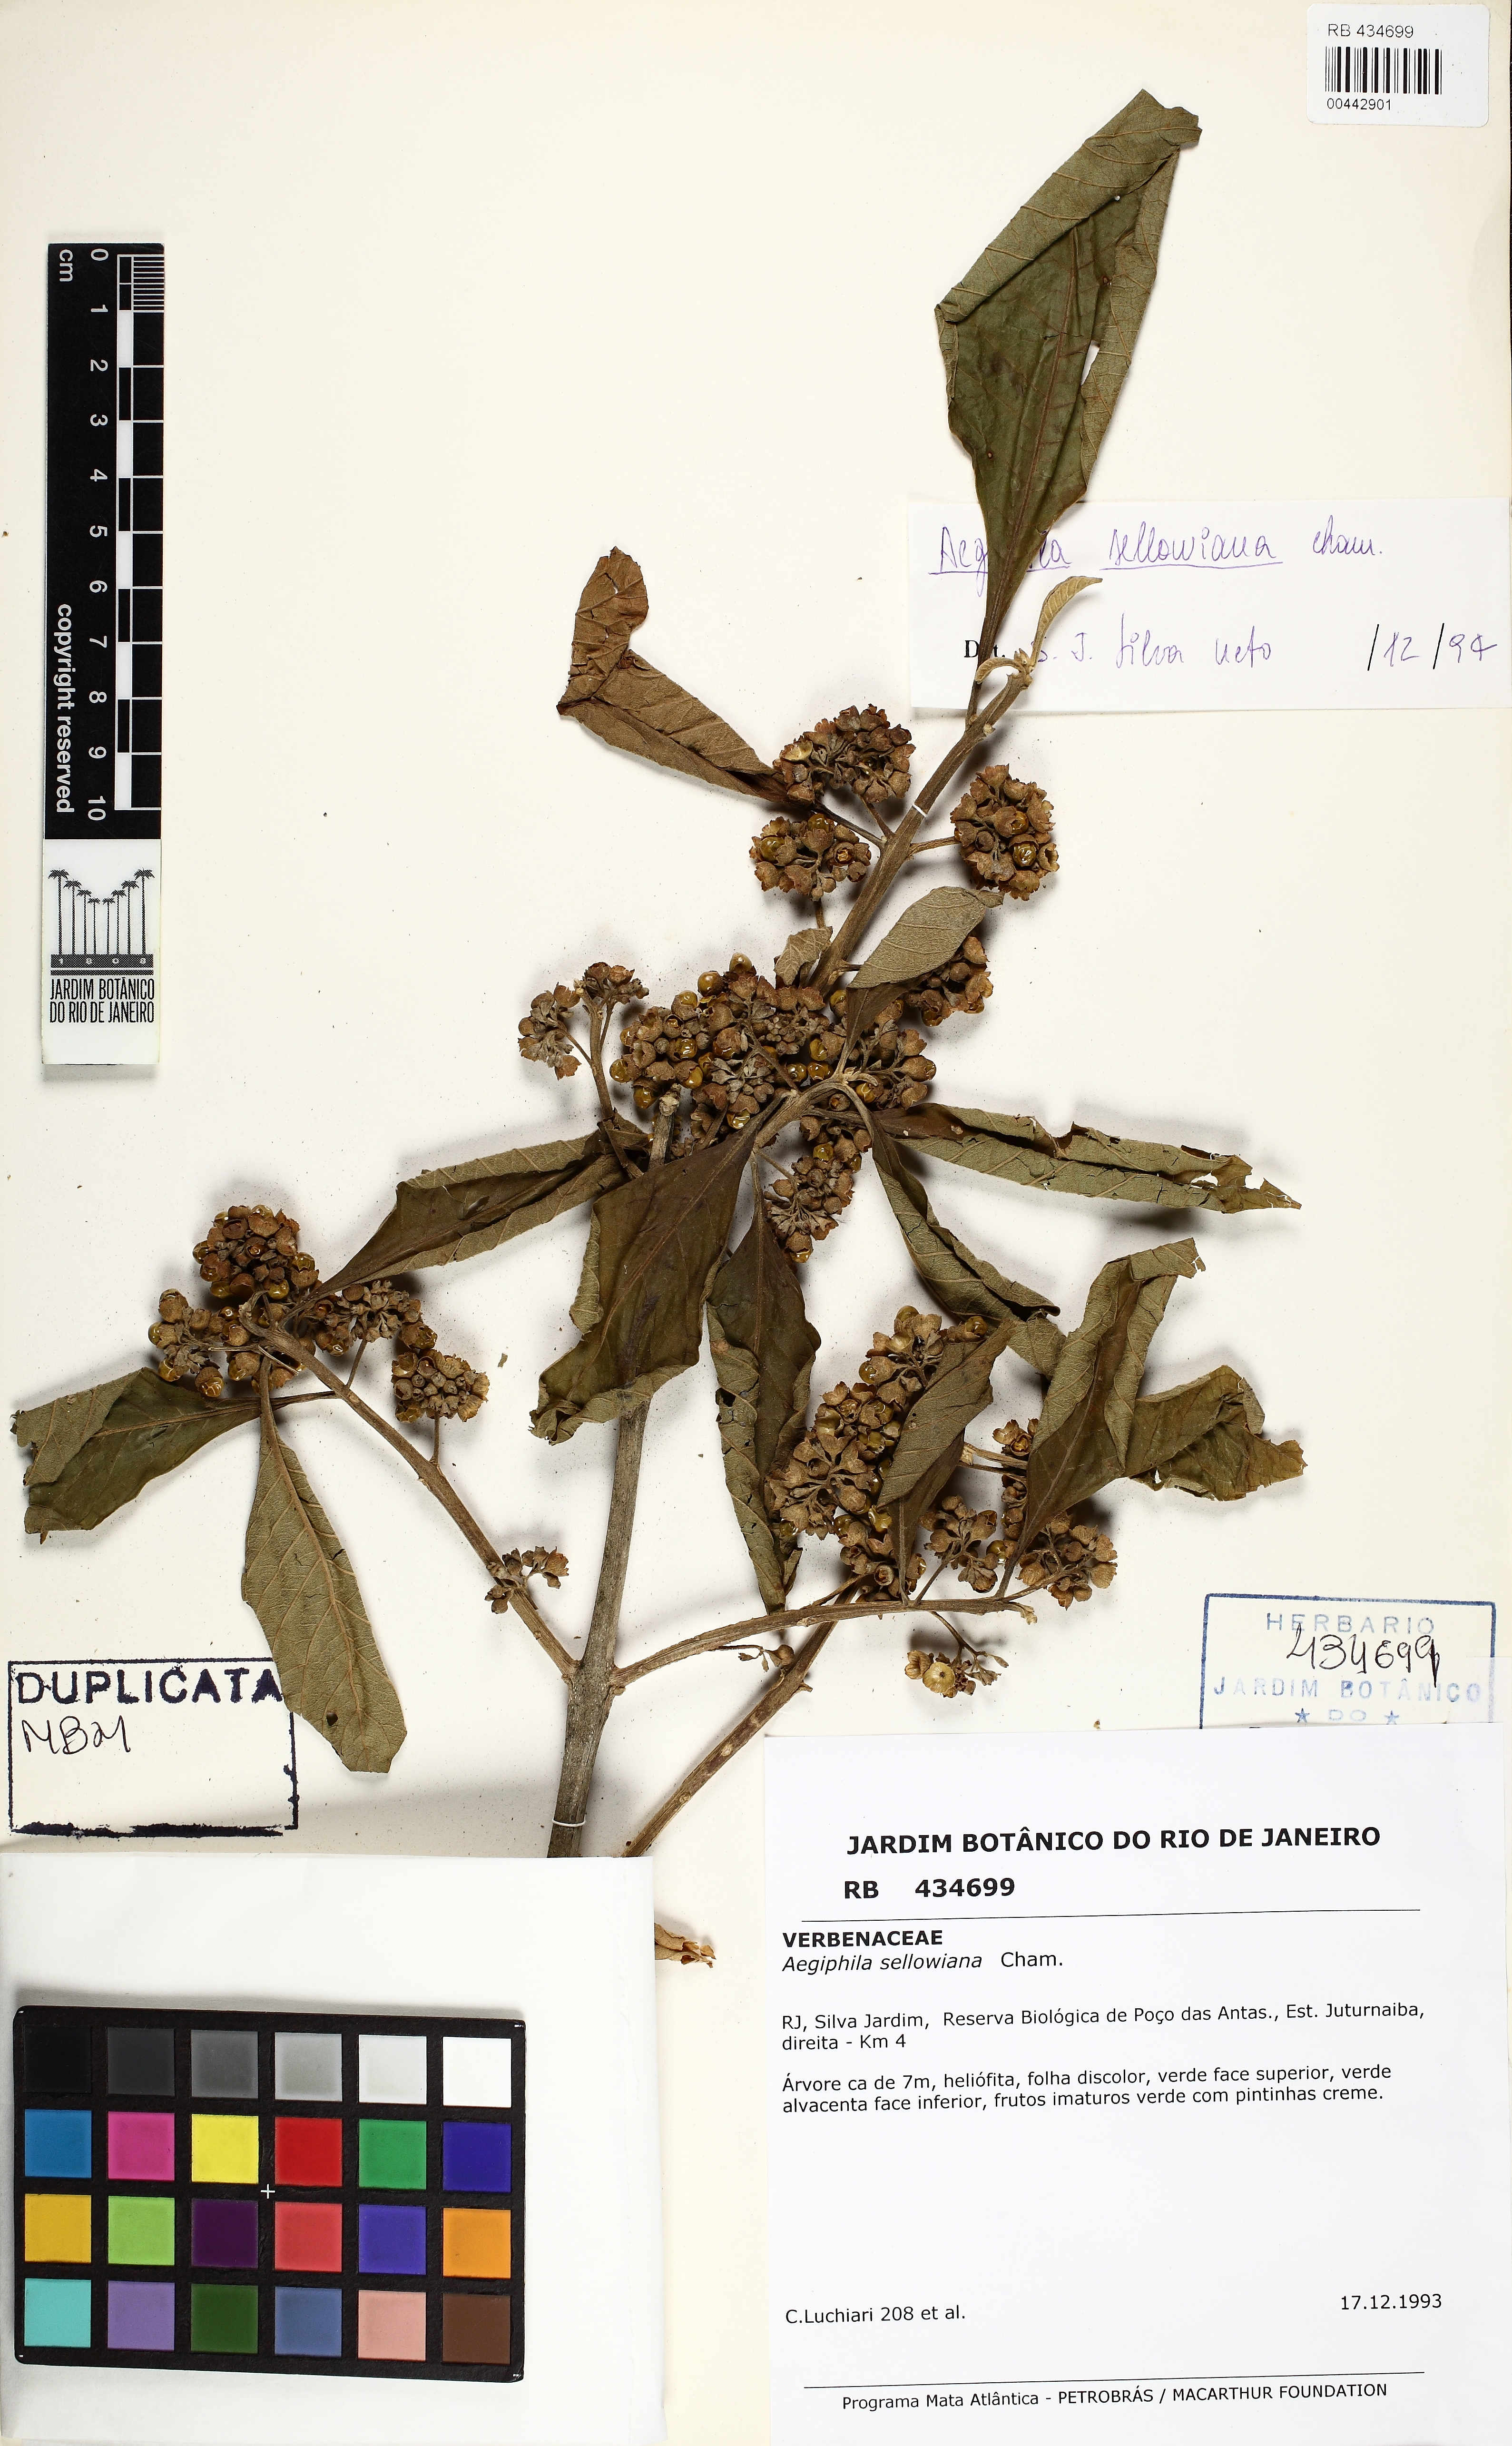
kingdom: Plantae
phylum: Tracheophyta
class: Magnoliopsida
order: Lamiales
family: Lamiaceae
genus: Aegiphila
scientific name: Aegiphila verticillata
